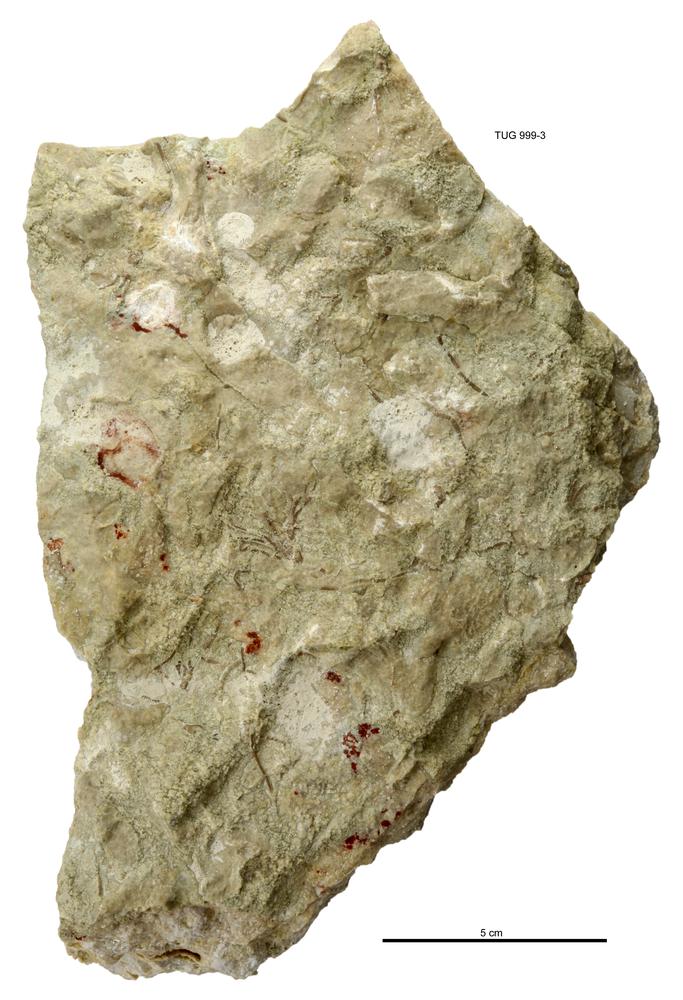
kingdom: Animalia
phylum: Echinodermata
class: Crinoidea
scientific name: Crinoidea
